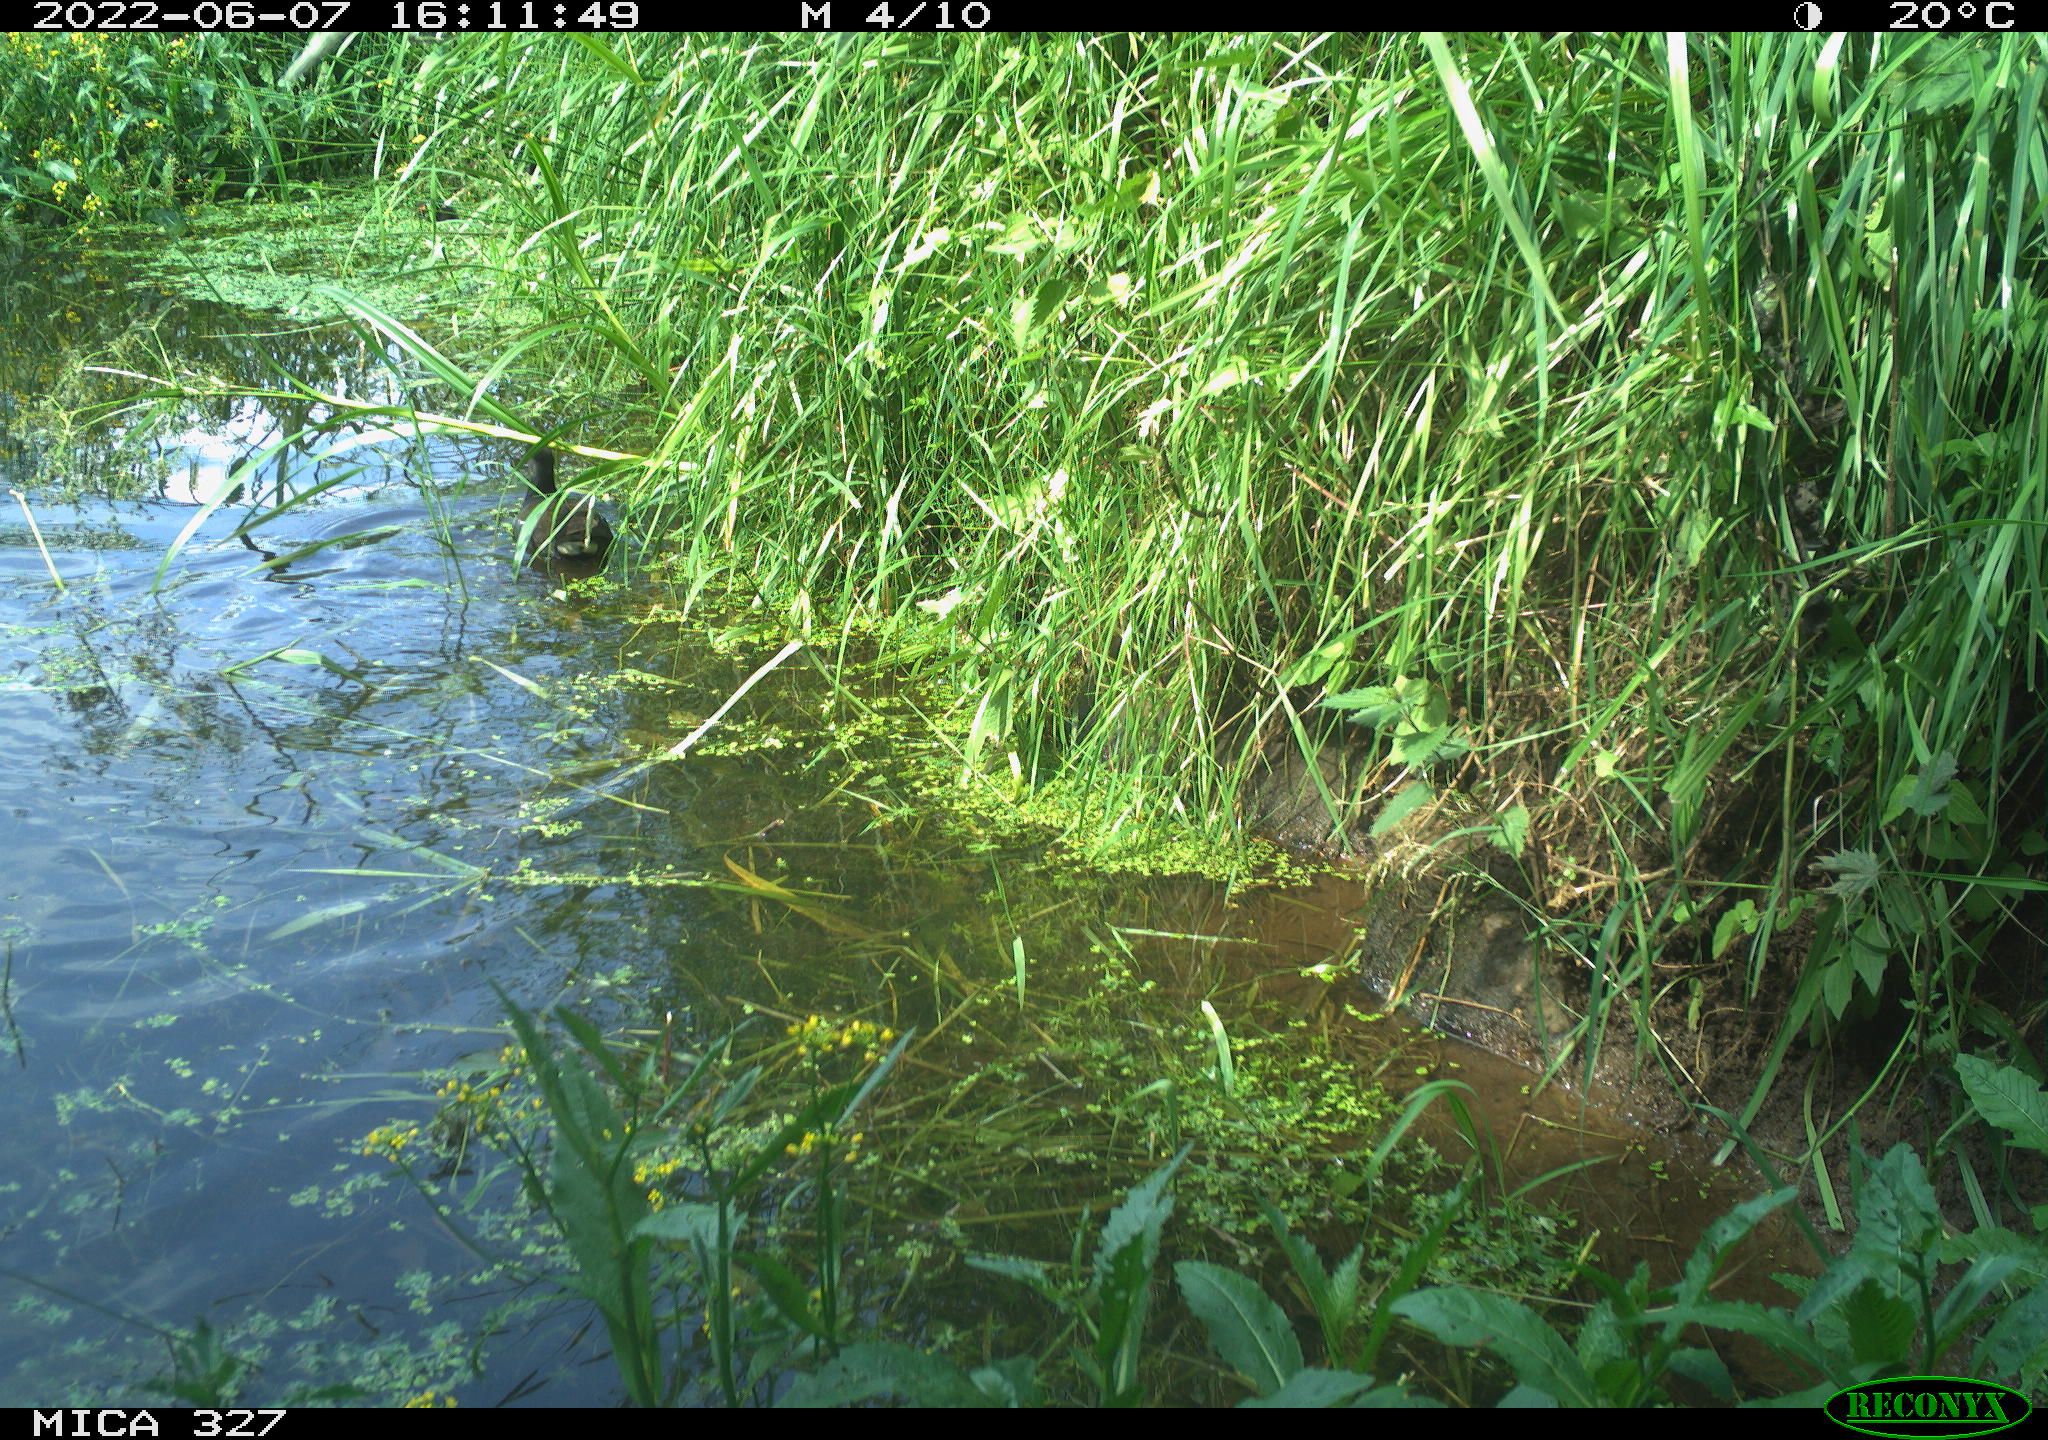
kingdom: Animalia
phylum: Chordata
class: Aves
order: Gruiformes
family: Rallidae
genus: Gallinula
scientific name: Gallinula chloropus
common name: Common moorhen
